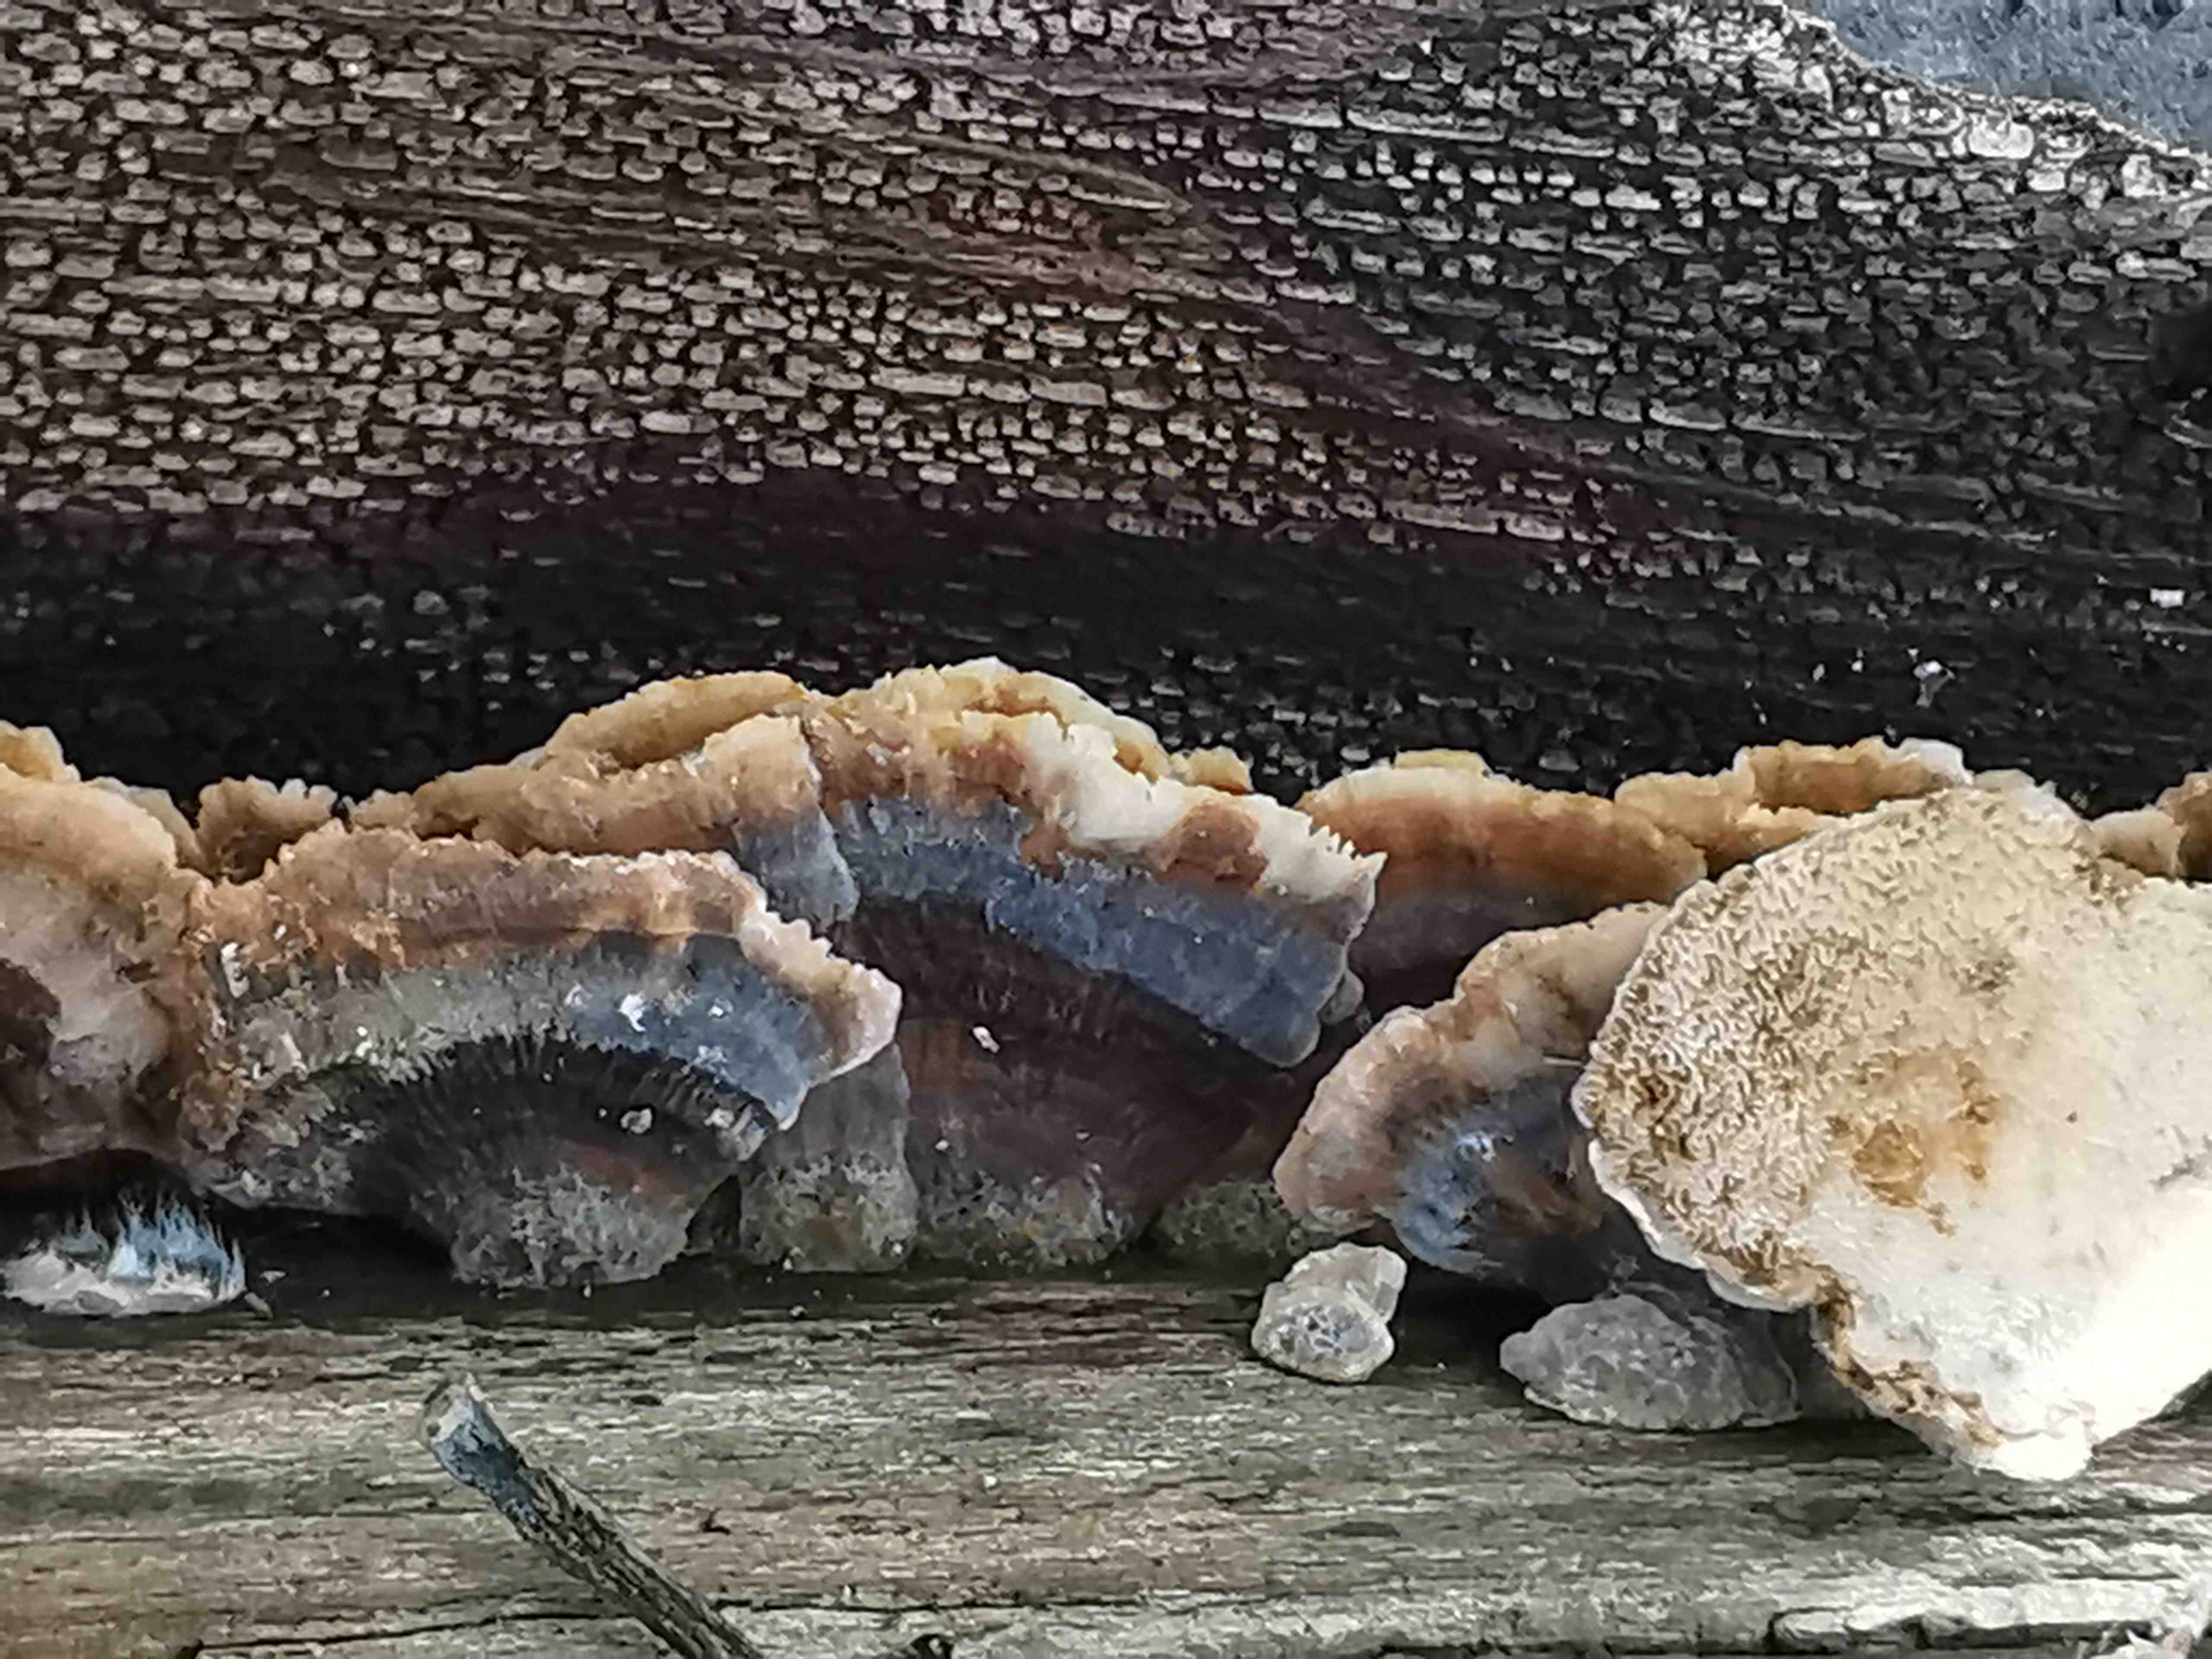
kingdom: Fungi
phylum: Basidiomycota
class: Agaricomycetes
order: Polyporales
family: Polyporaceae
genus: Trametes
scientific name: Trametes versicolor
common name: broget læderporesvamp
